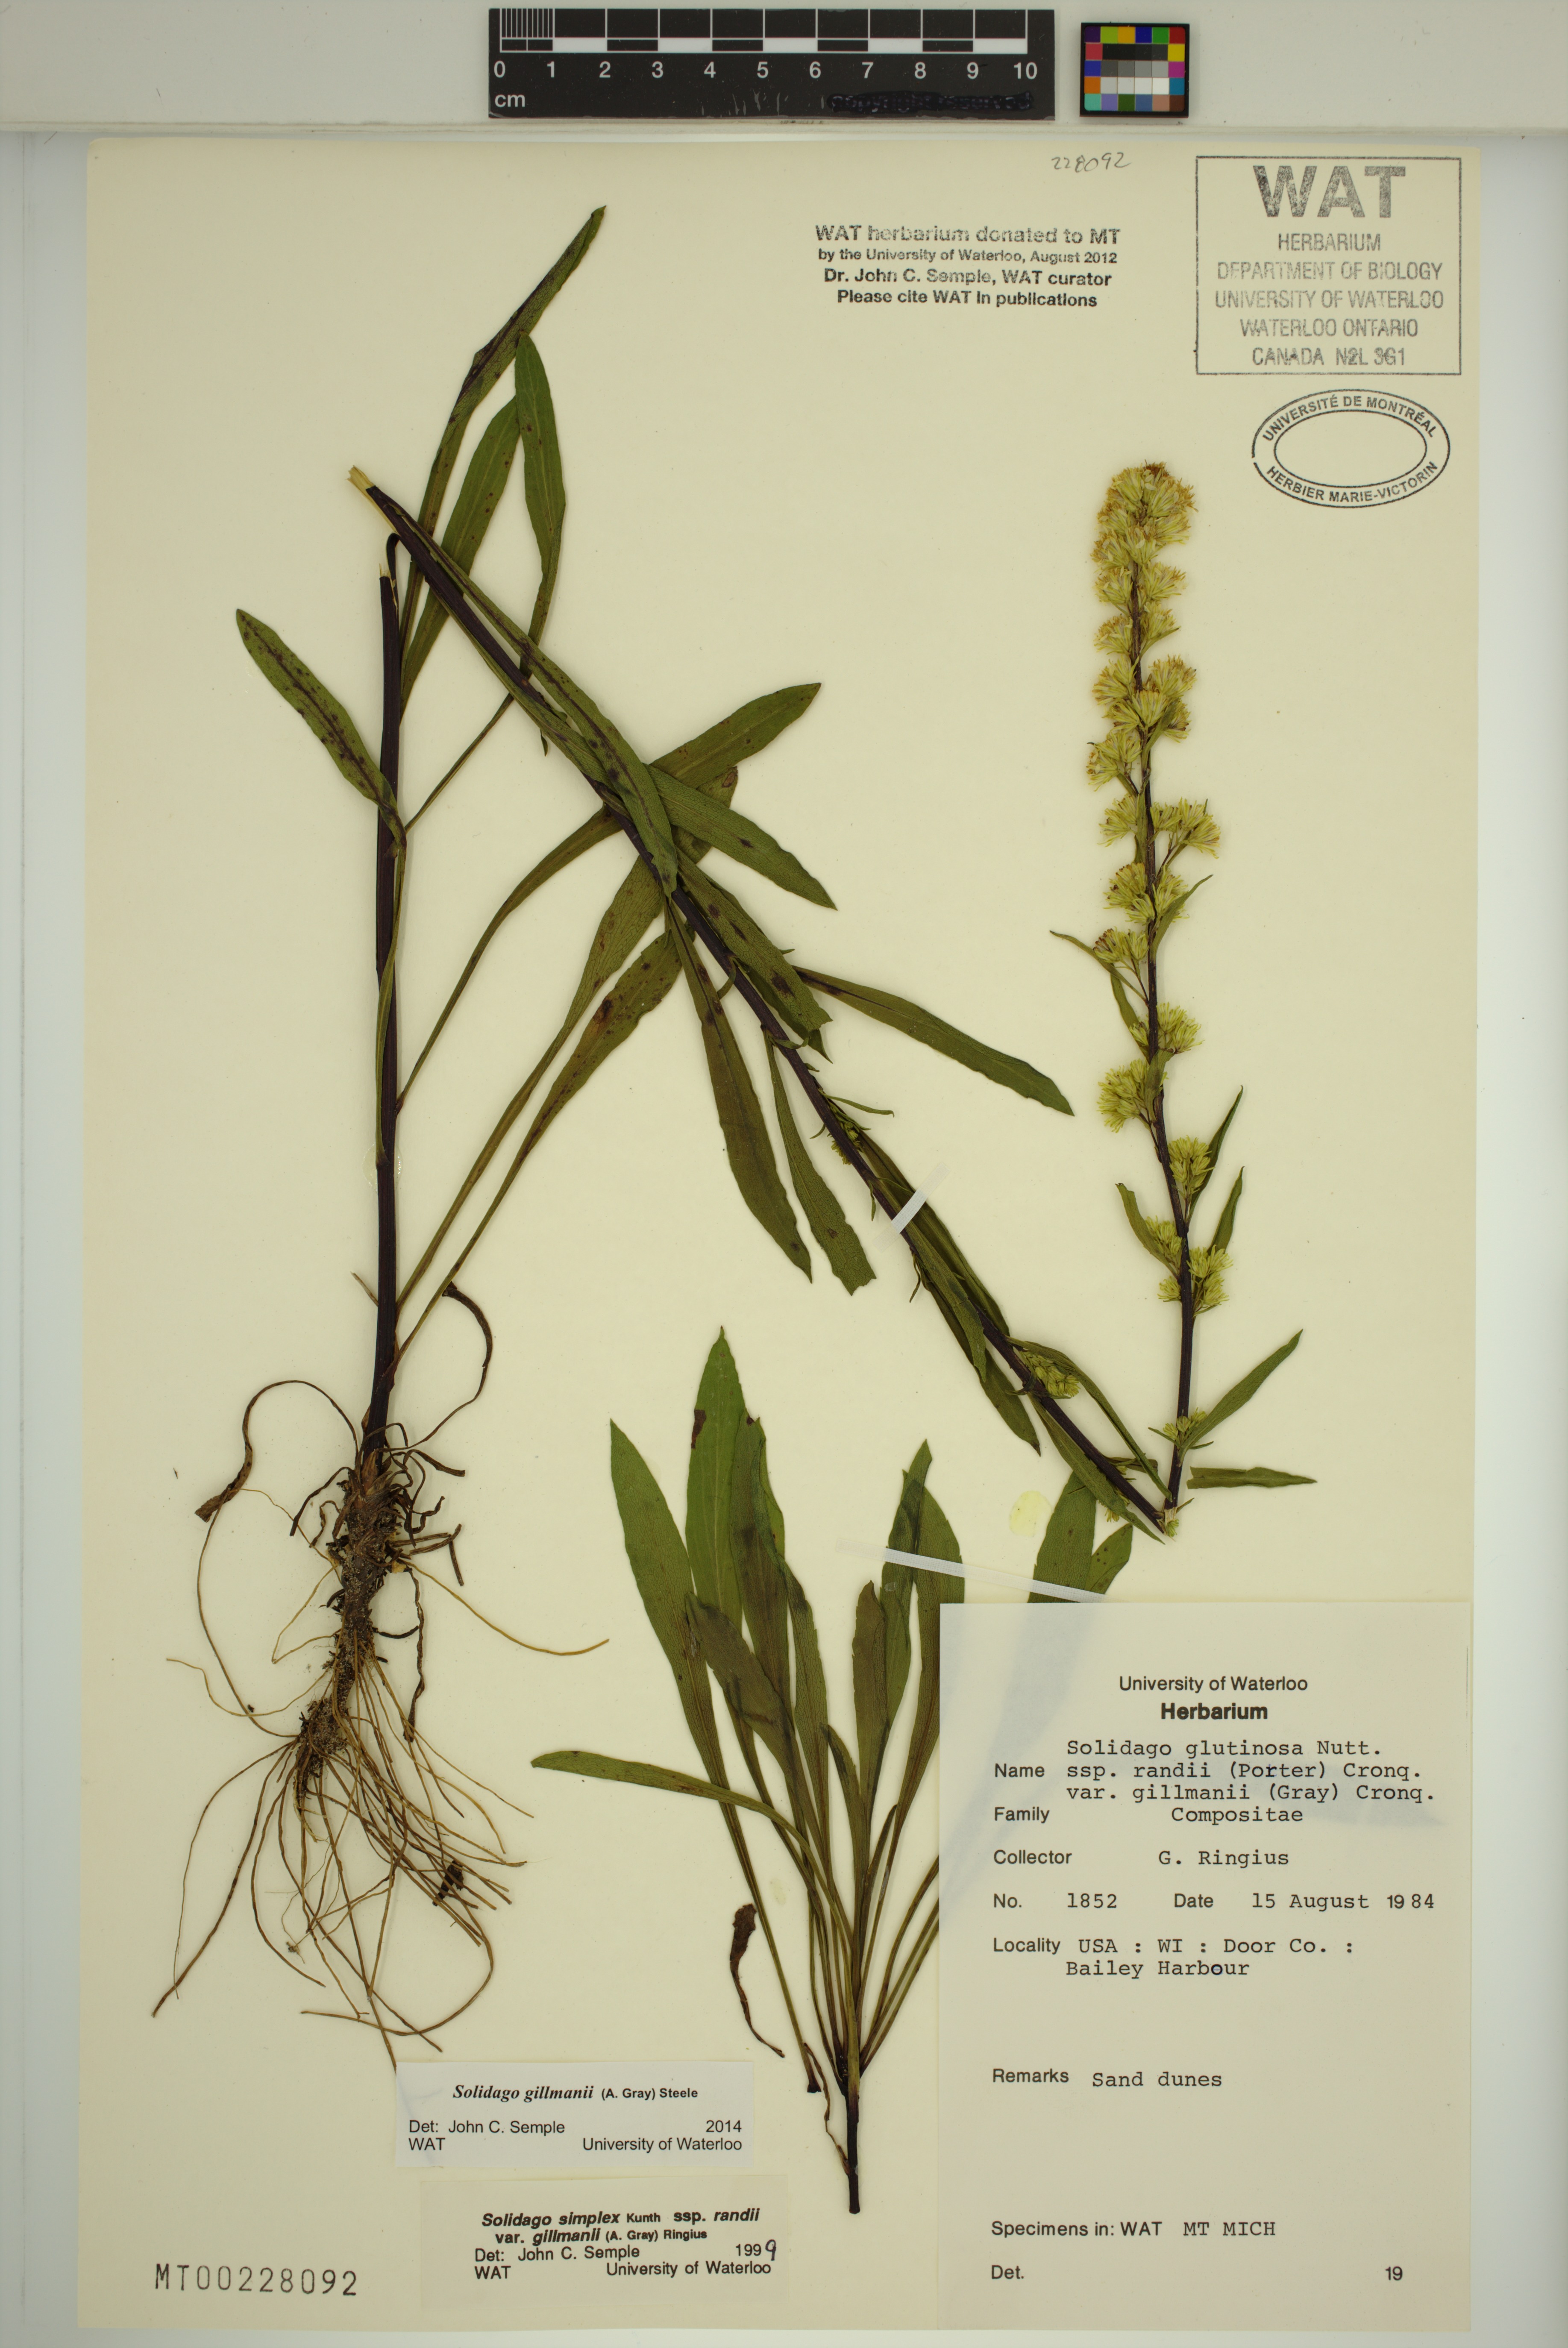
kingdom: Plantae
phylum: Tracheophyta
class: Magnoliopsida
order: Asterales
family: Asteraceae
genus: Solidago
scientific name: Solidago gillmanii
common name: Gillman's goldenrod
